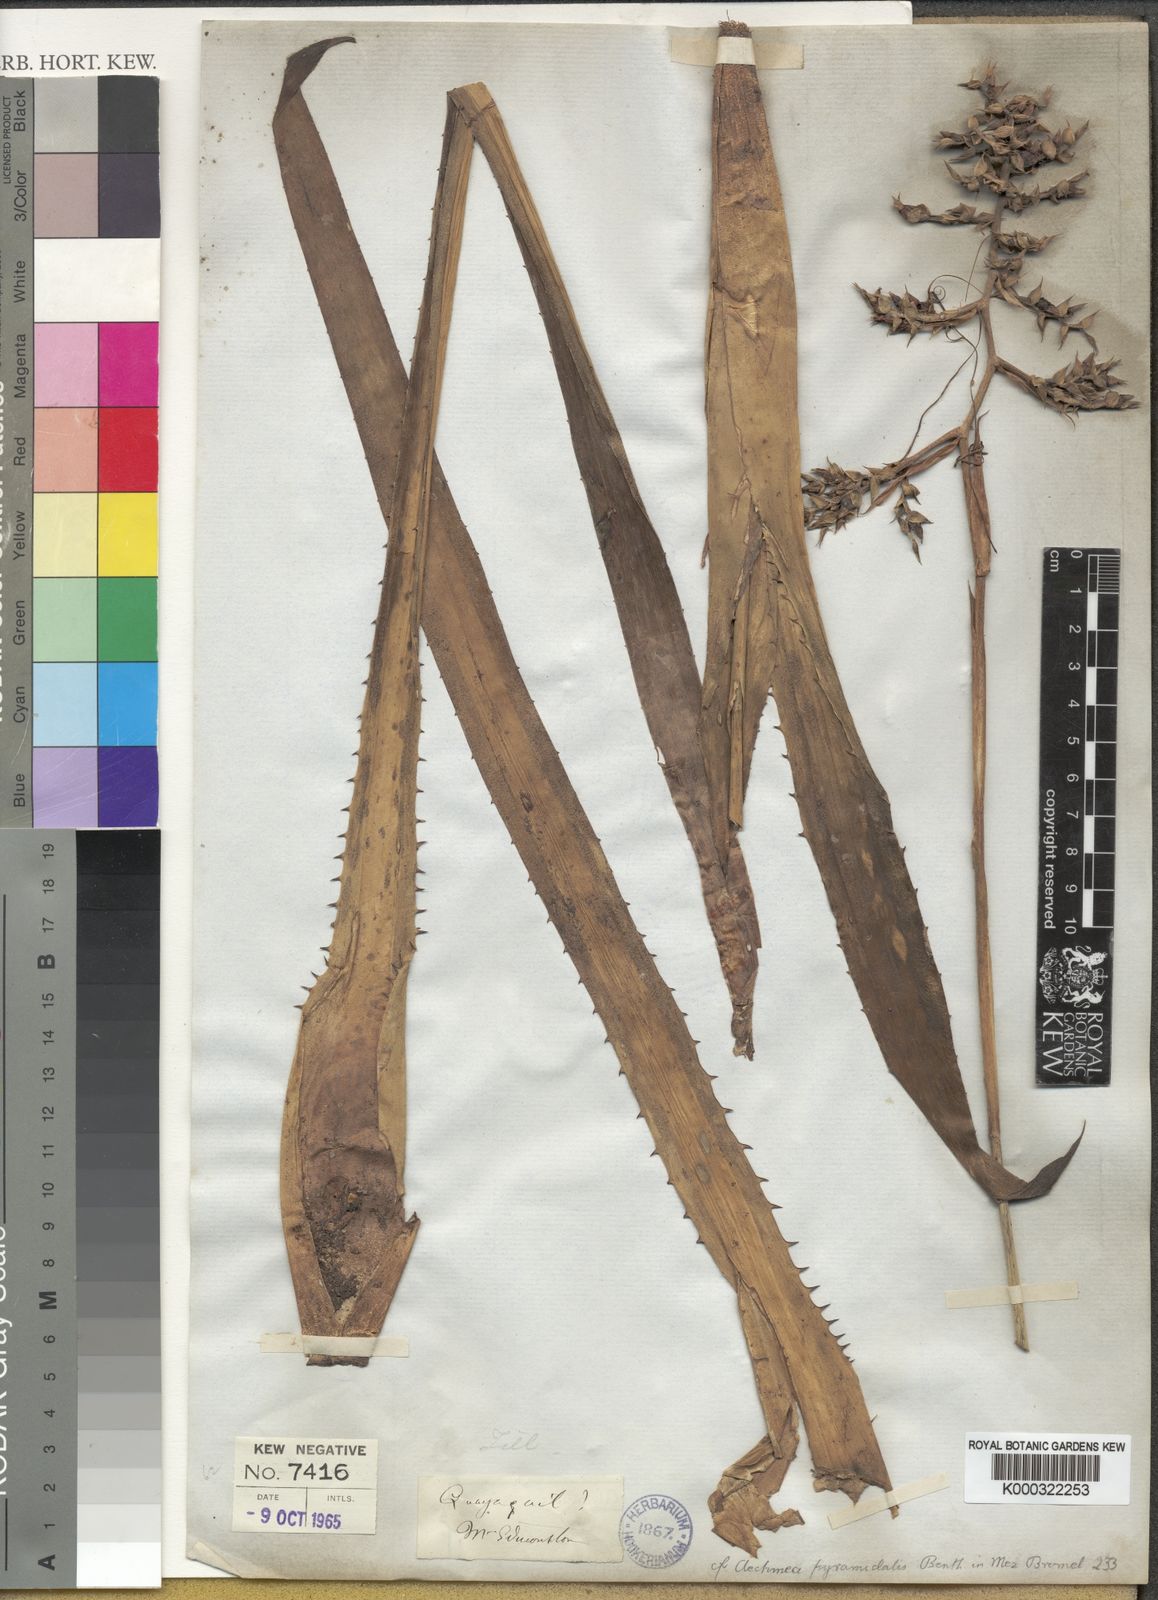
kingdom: Plantae
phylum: Tracheophyta
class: Liliopsida
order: Poales
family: Bromeliaceae
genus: Aechmea
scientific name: Aechmea pyramidalis
